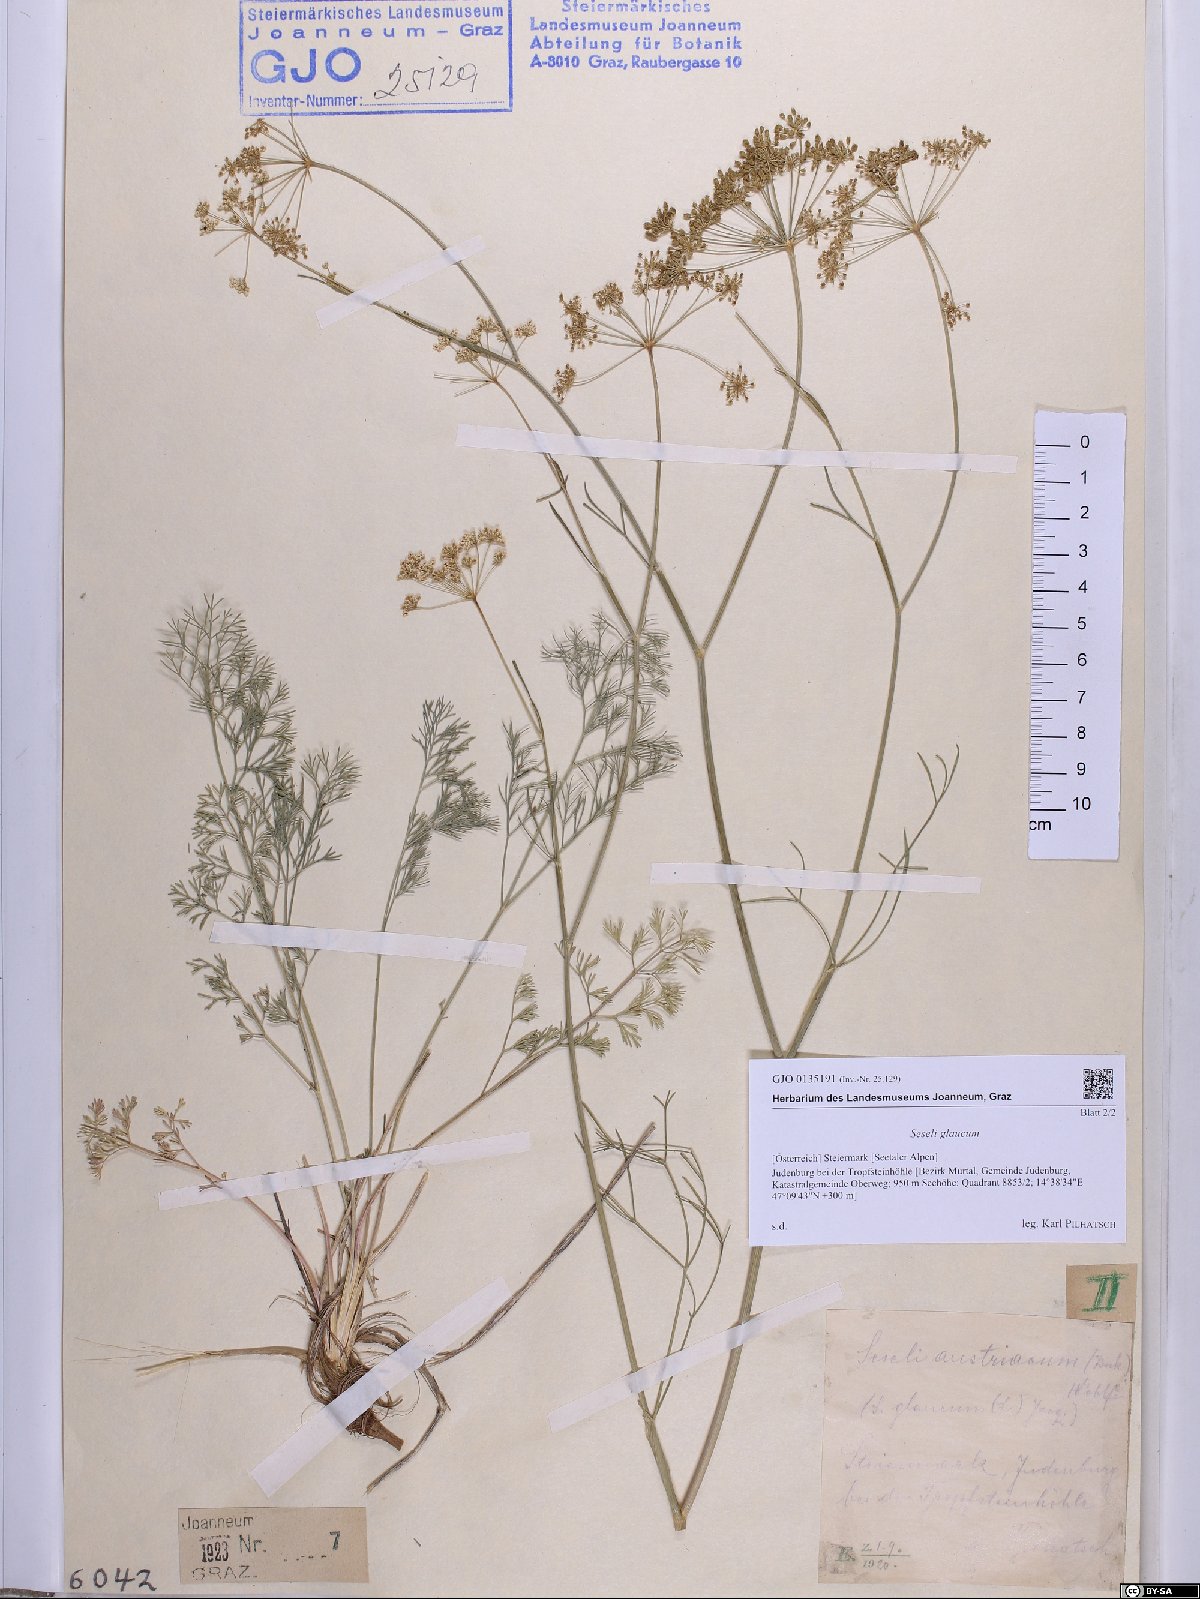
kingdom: Plantae
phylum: Tracheophyta
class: Magnoliopsida
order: Apiales
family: Apiaceae
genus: Seseli
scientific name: Seseli montanum
